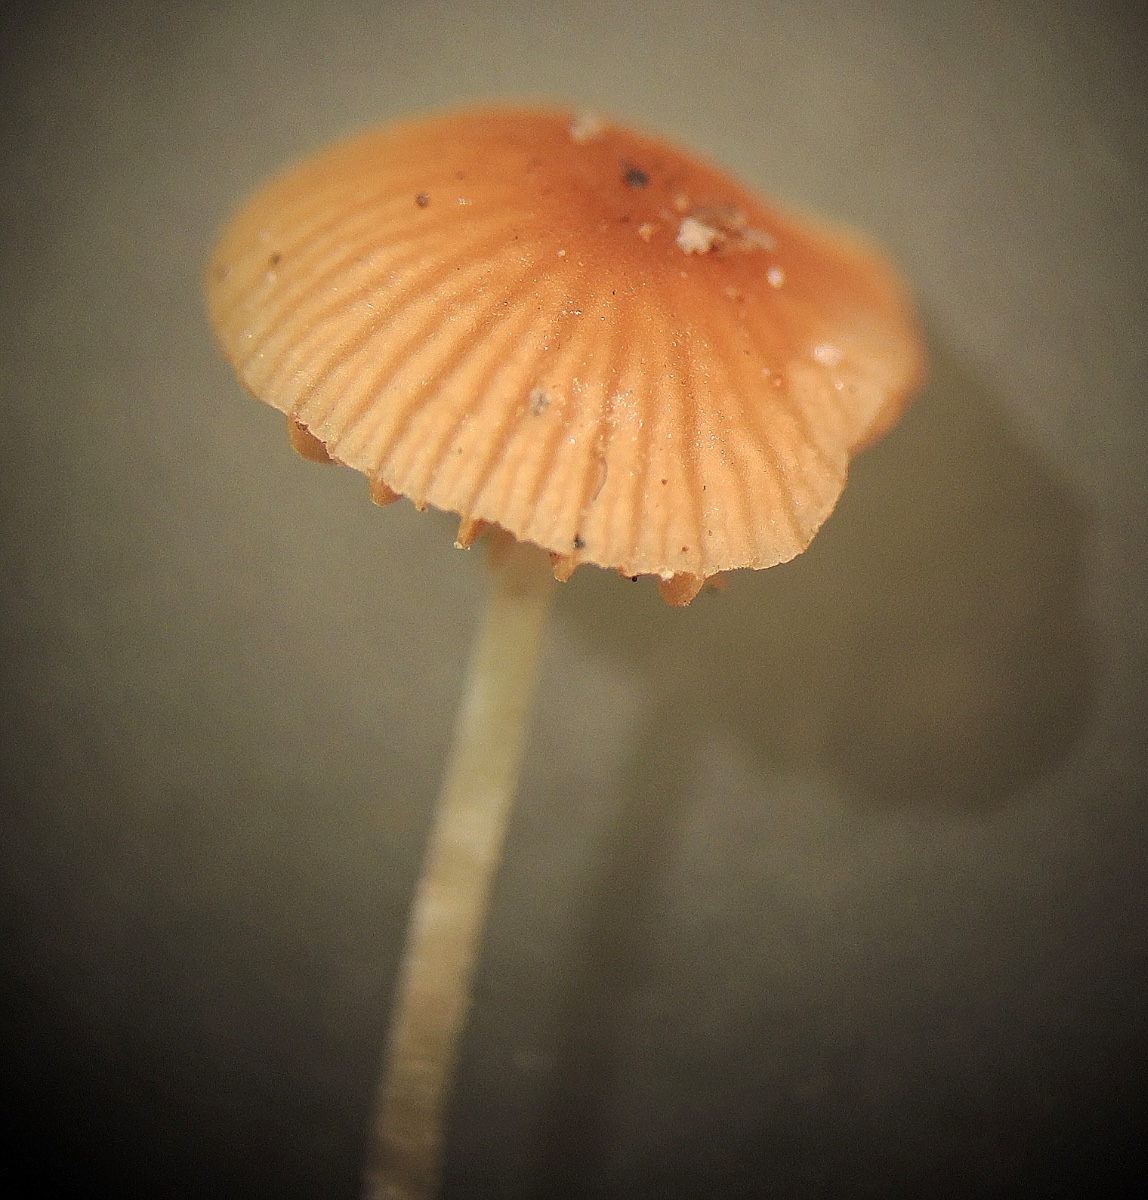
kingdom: Fungi
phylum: Basidiomycota
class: Agaricomycetes
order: Agaricales
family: Bolbitiaceae
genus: Conocybe
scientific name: Conocybe mairei
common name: spinkel dansehat
